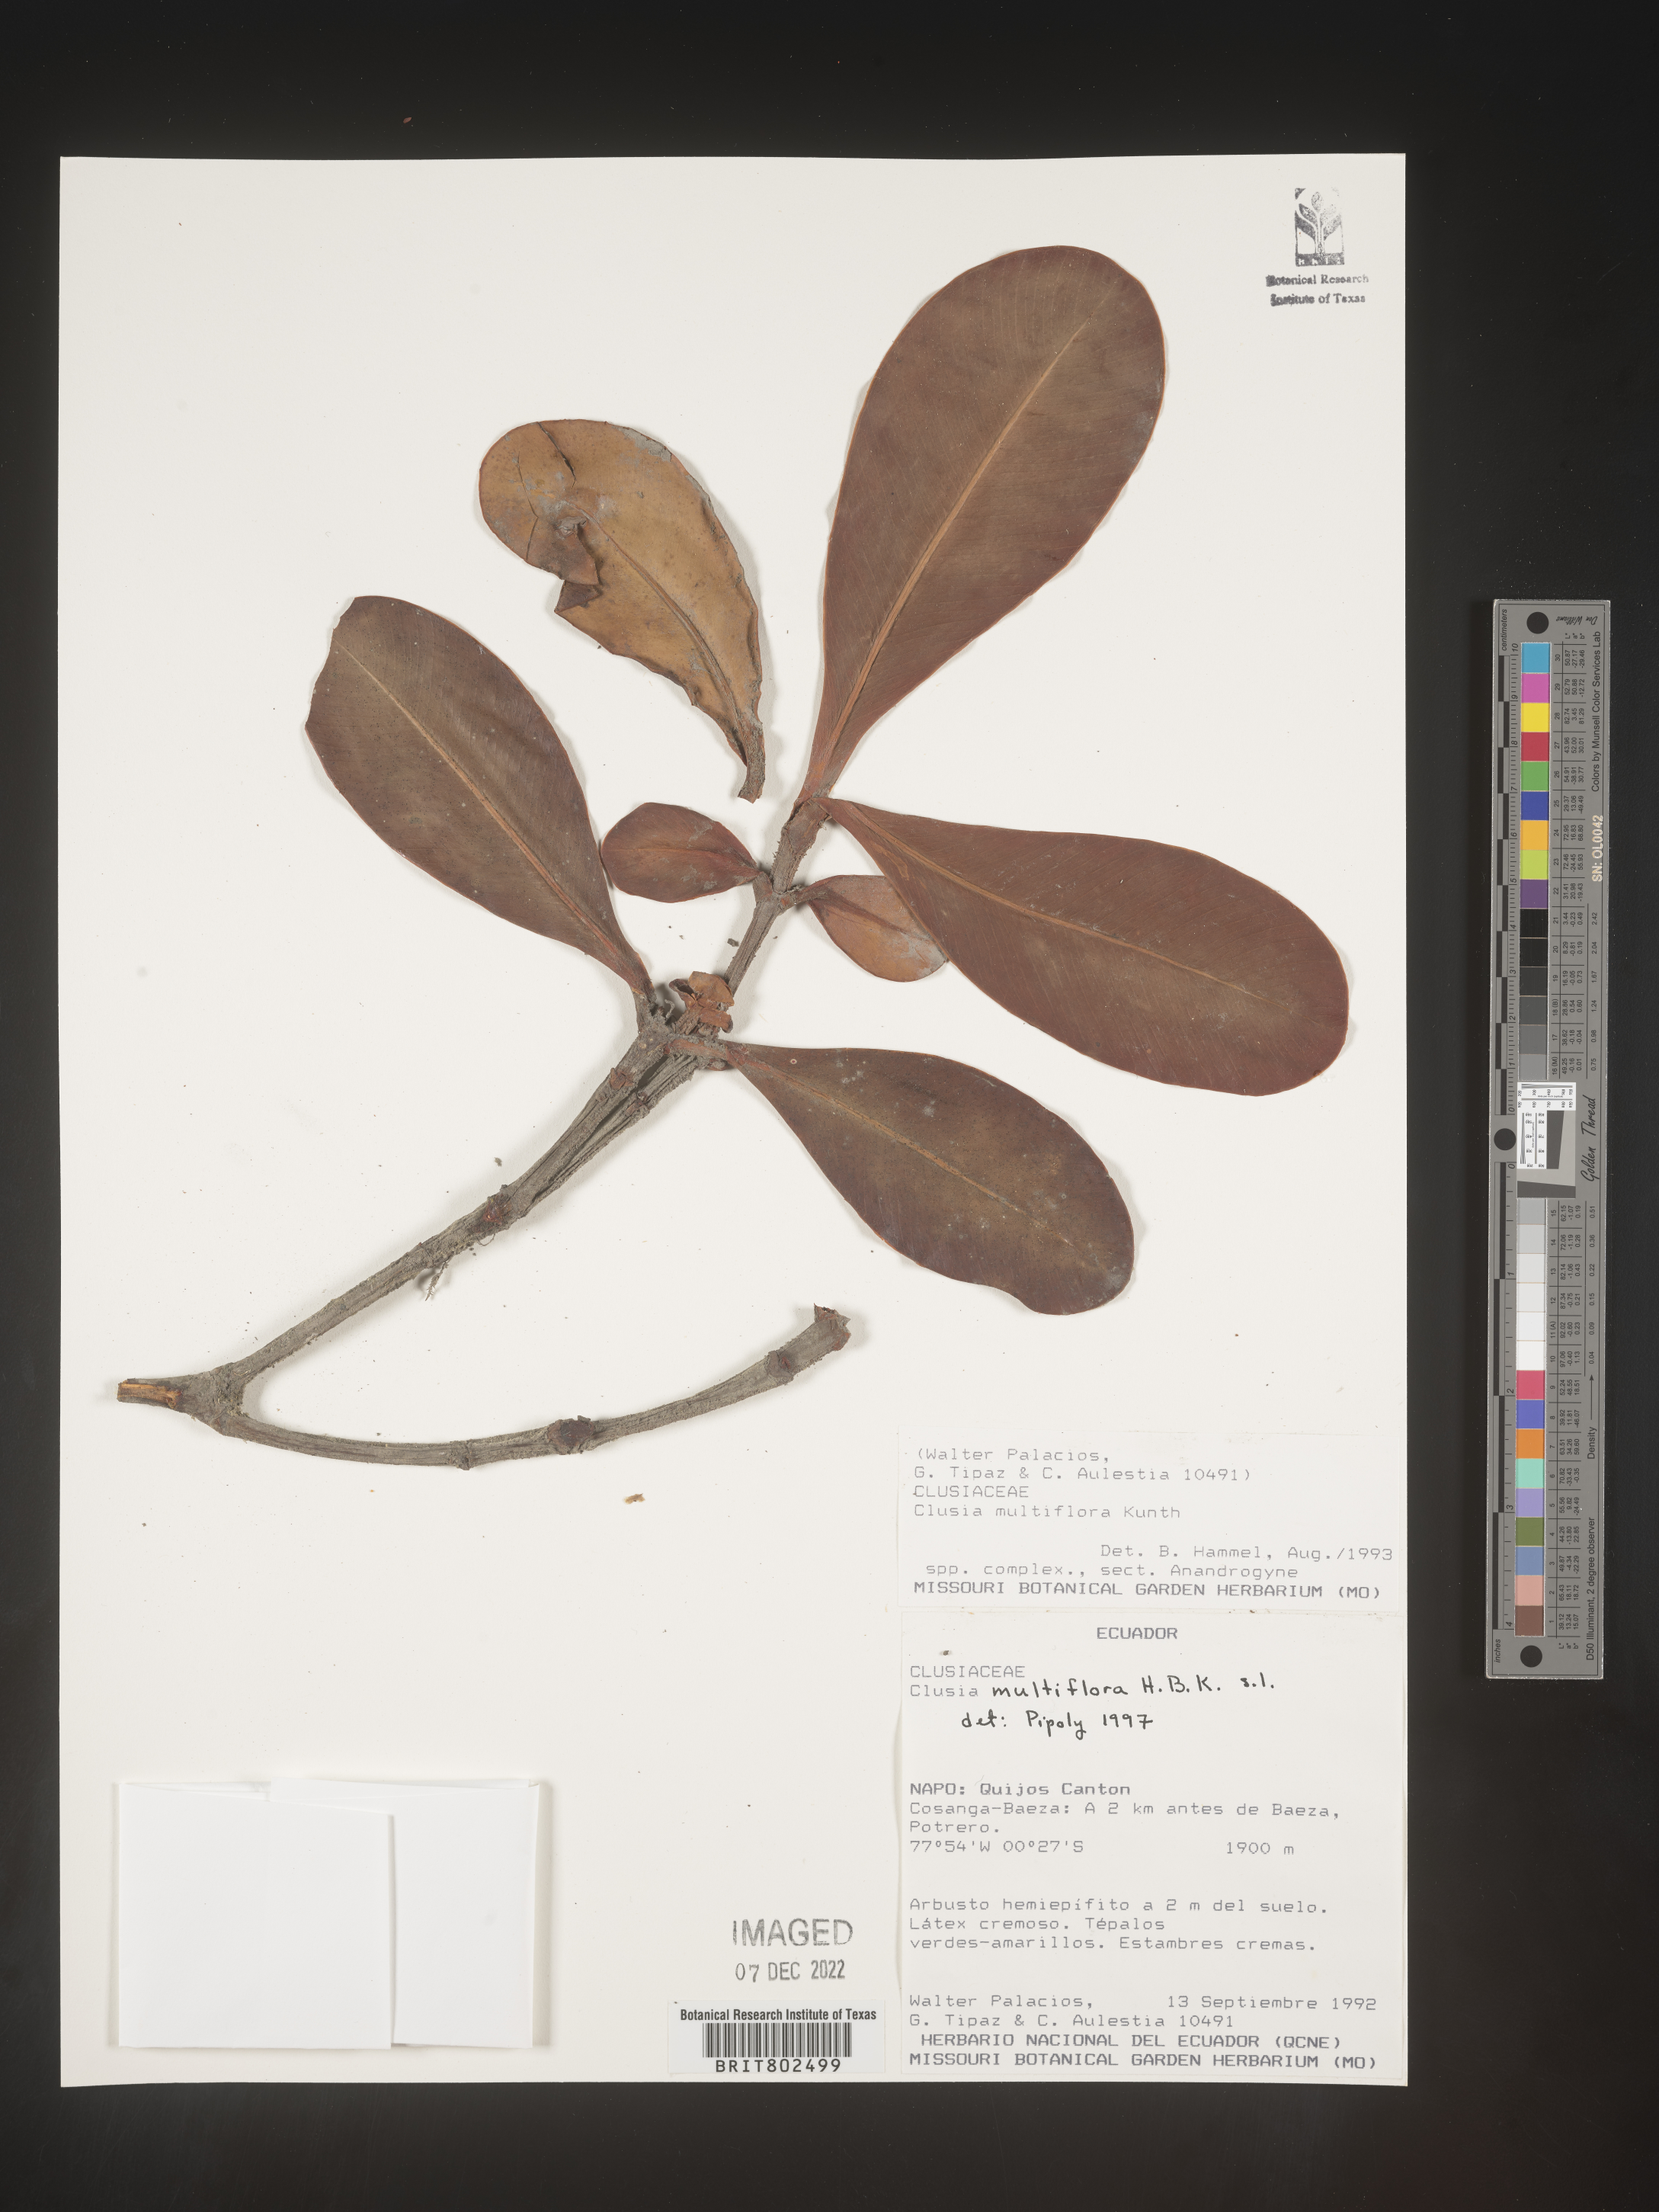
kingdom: Plantae
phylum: Tracheophyta
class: Magnoliopsida
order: Malpighiales
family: Clusiaceae
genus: Clusia
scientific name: Clusia multiflora
